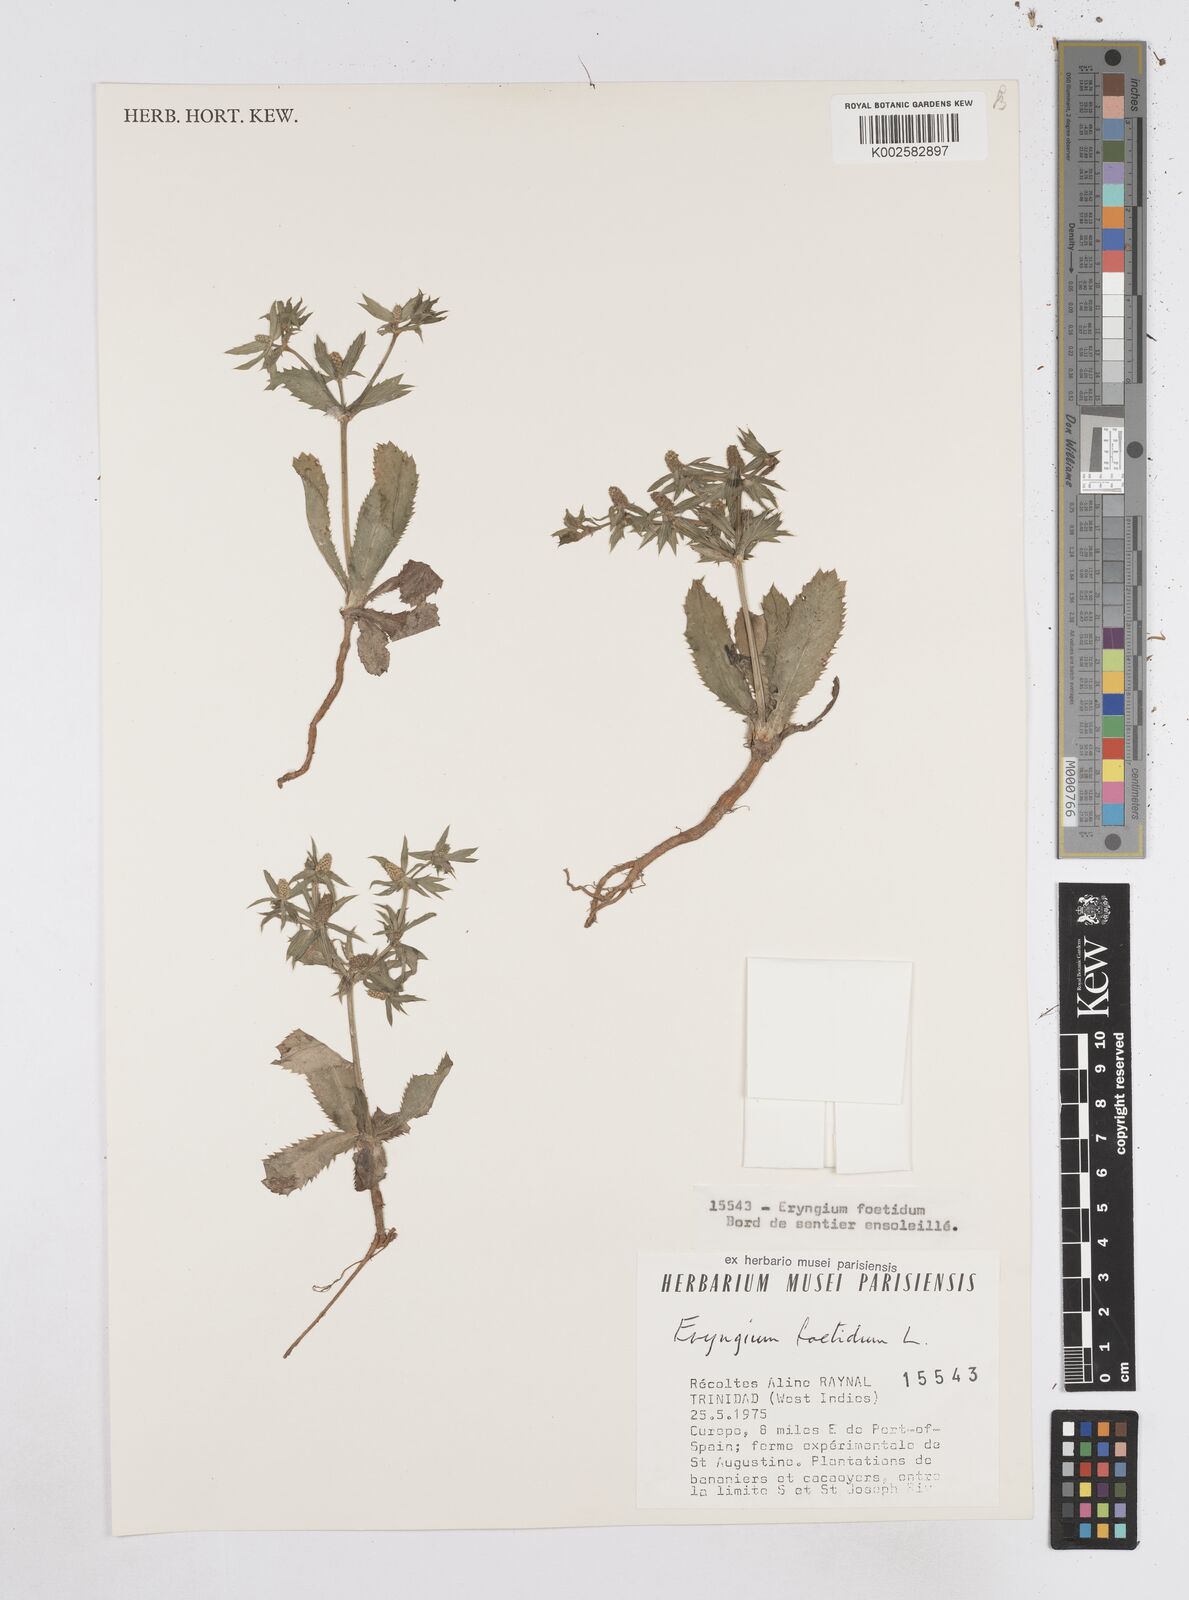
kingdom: Plantae
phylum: Tracheophyta
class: Magnoliopsida
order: Apiales
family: Apiaceae
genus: Eryngium
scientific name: Eryngium foetidum
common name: Fitweed
